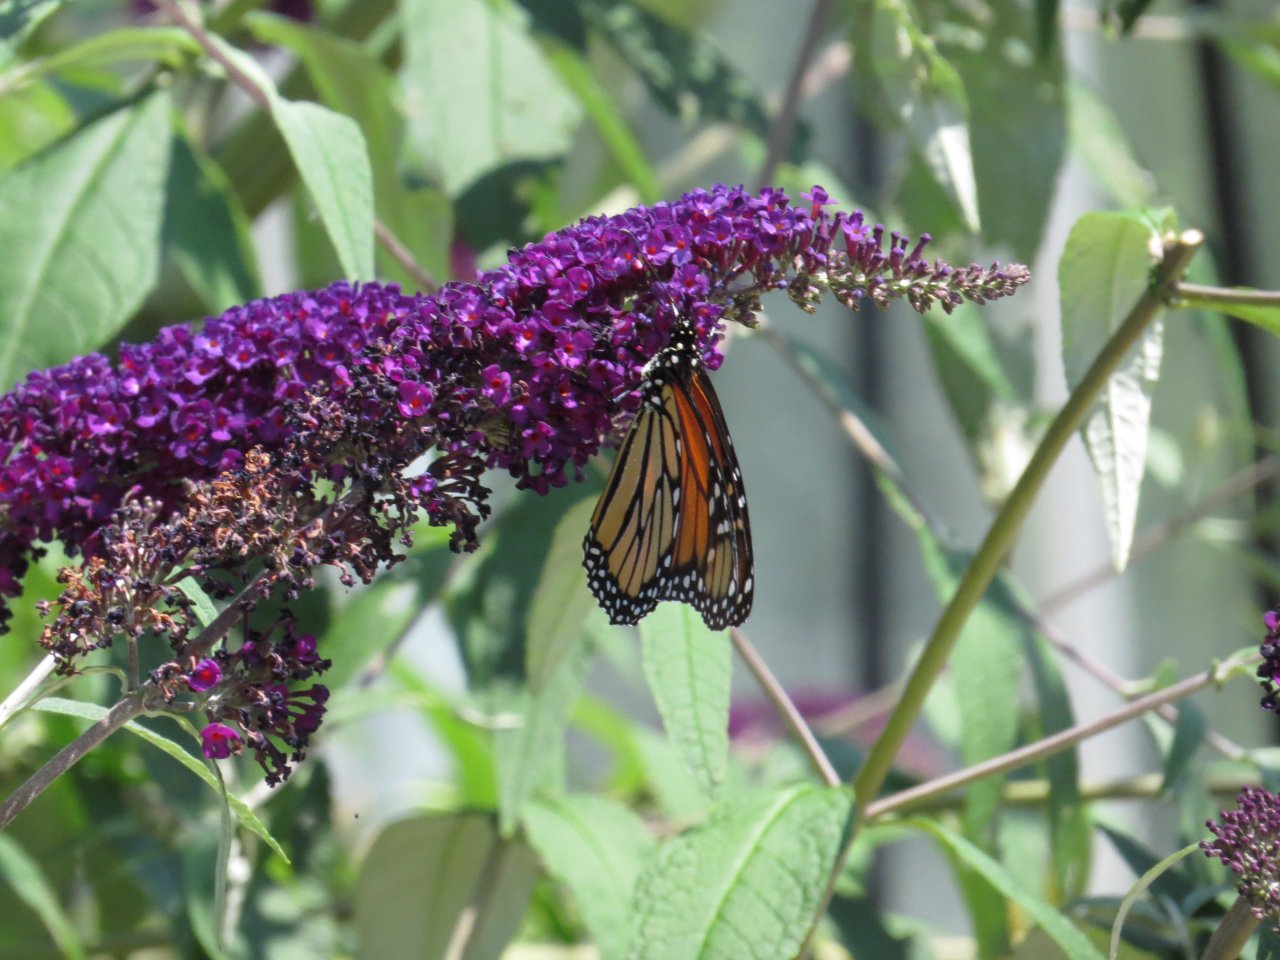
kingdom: Animalia
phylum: Arthropoda
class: Insecta
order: Lepidoptera
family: Nymphalidae
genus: Danaus
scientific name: Danaus plexippus
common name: Monarch
